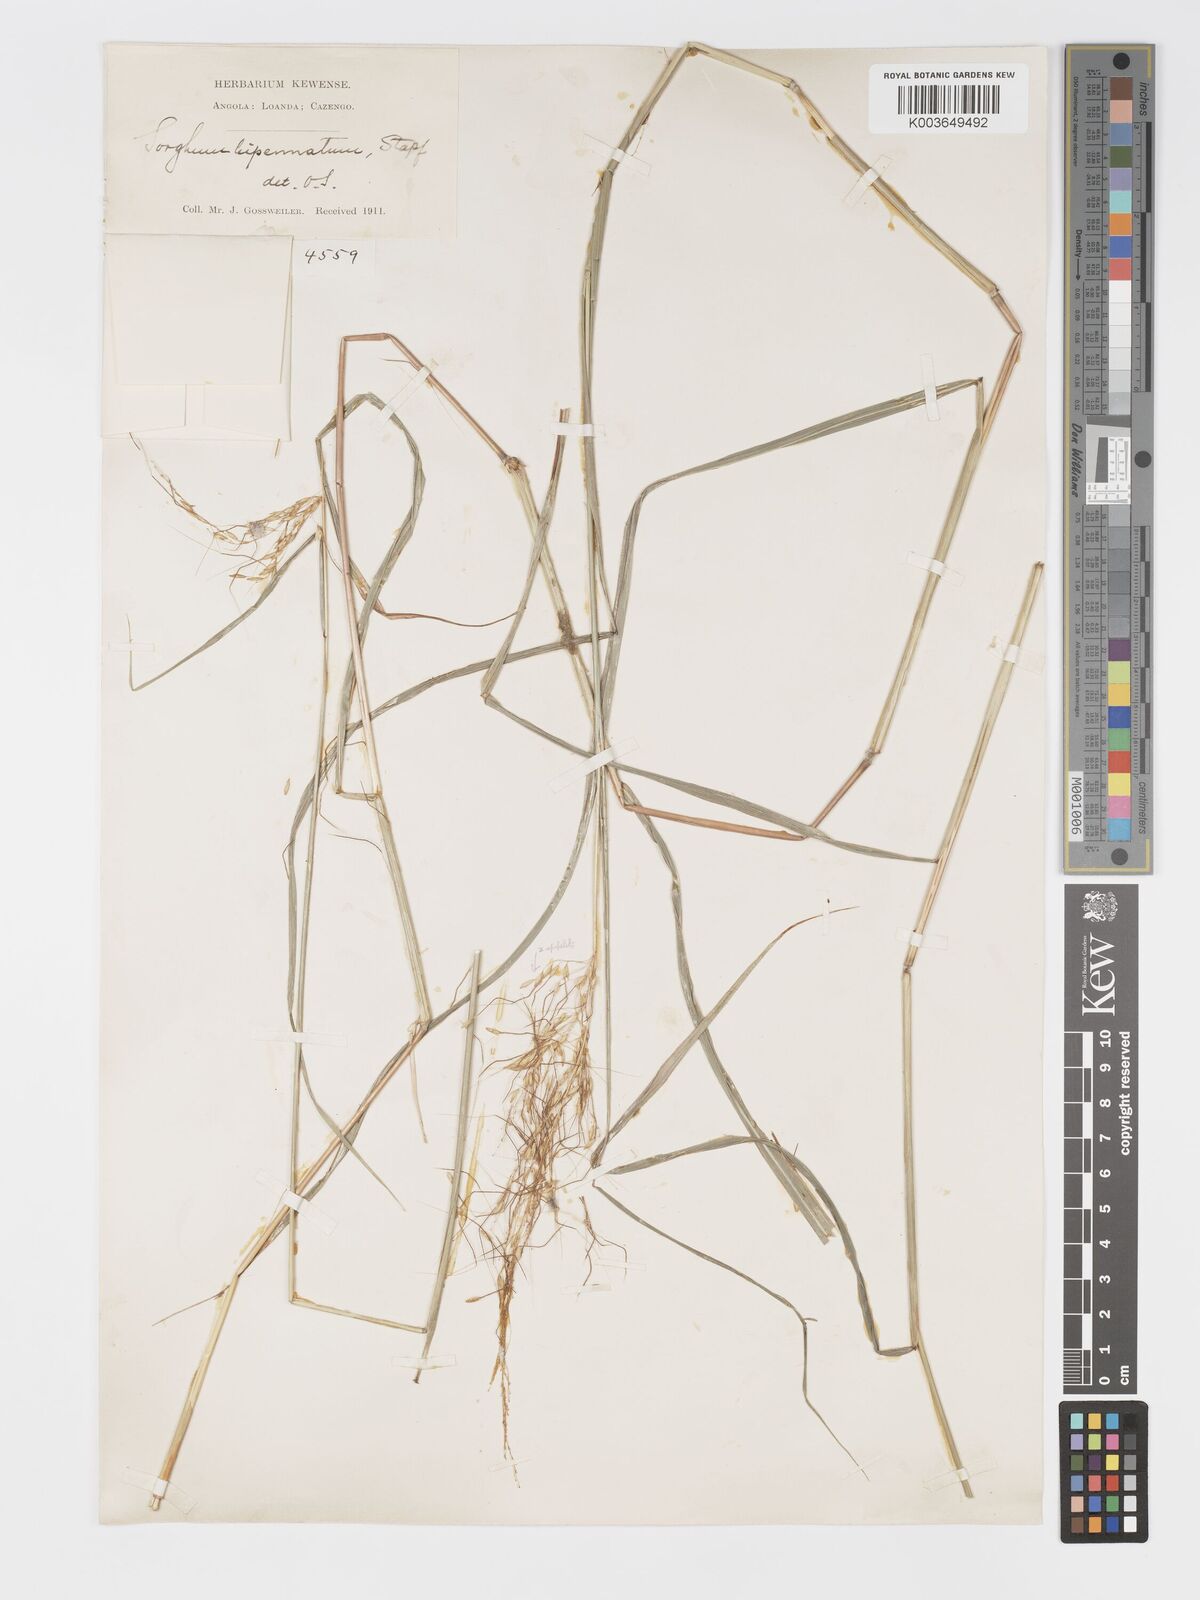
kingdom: Plantae
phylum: Tracheophyta
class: Liliopsida
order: Poales
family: Poaceae
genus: Sorghastrum
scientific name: Sorghastrum incompletum
